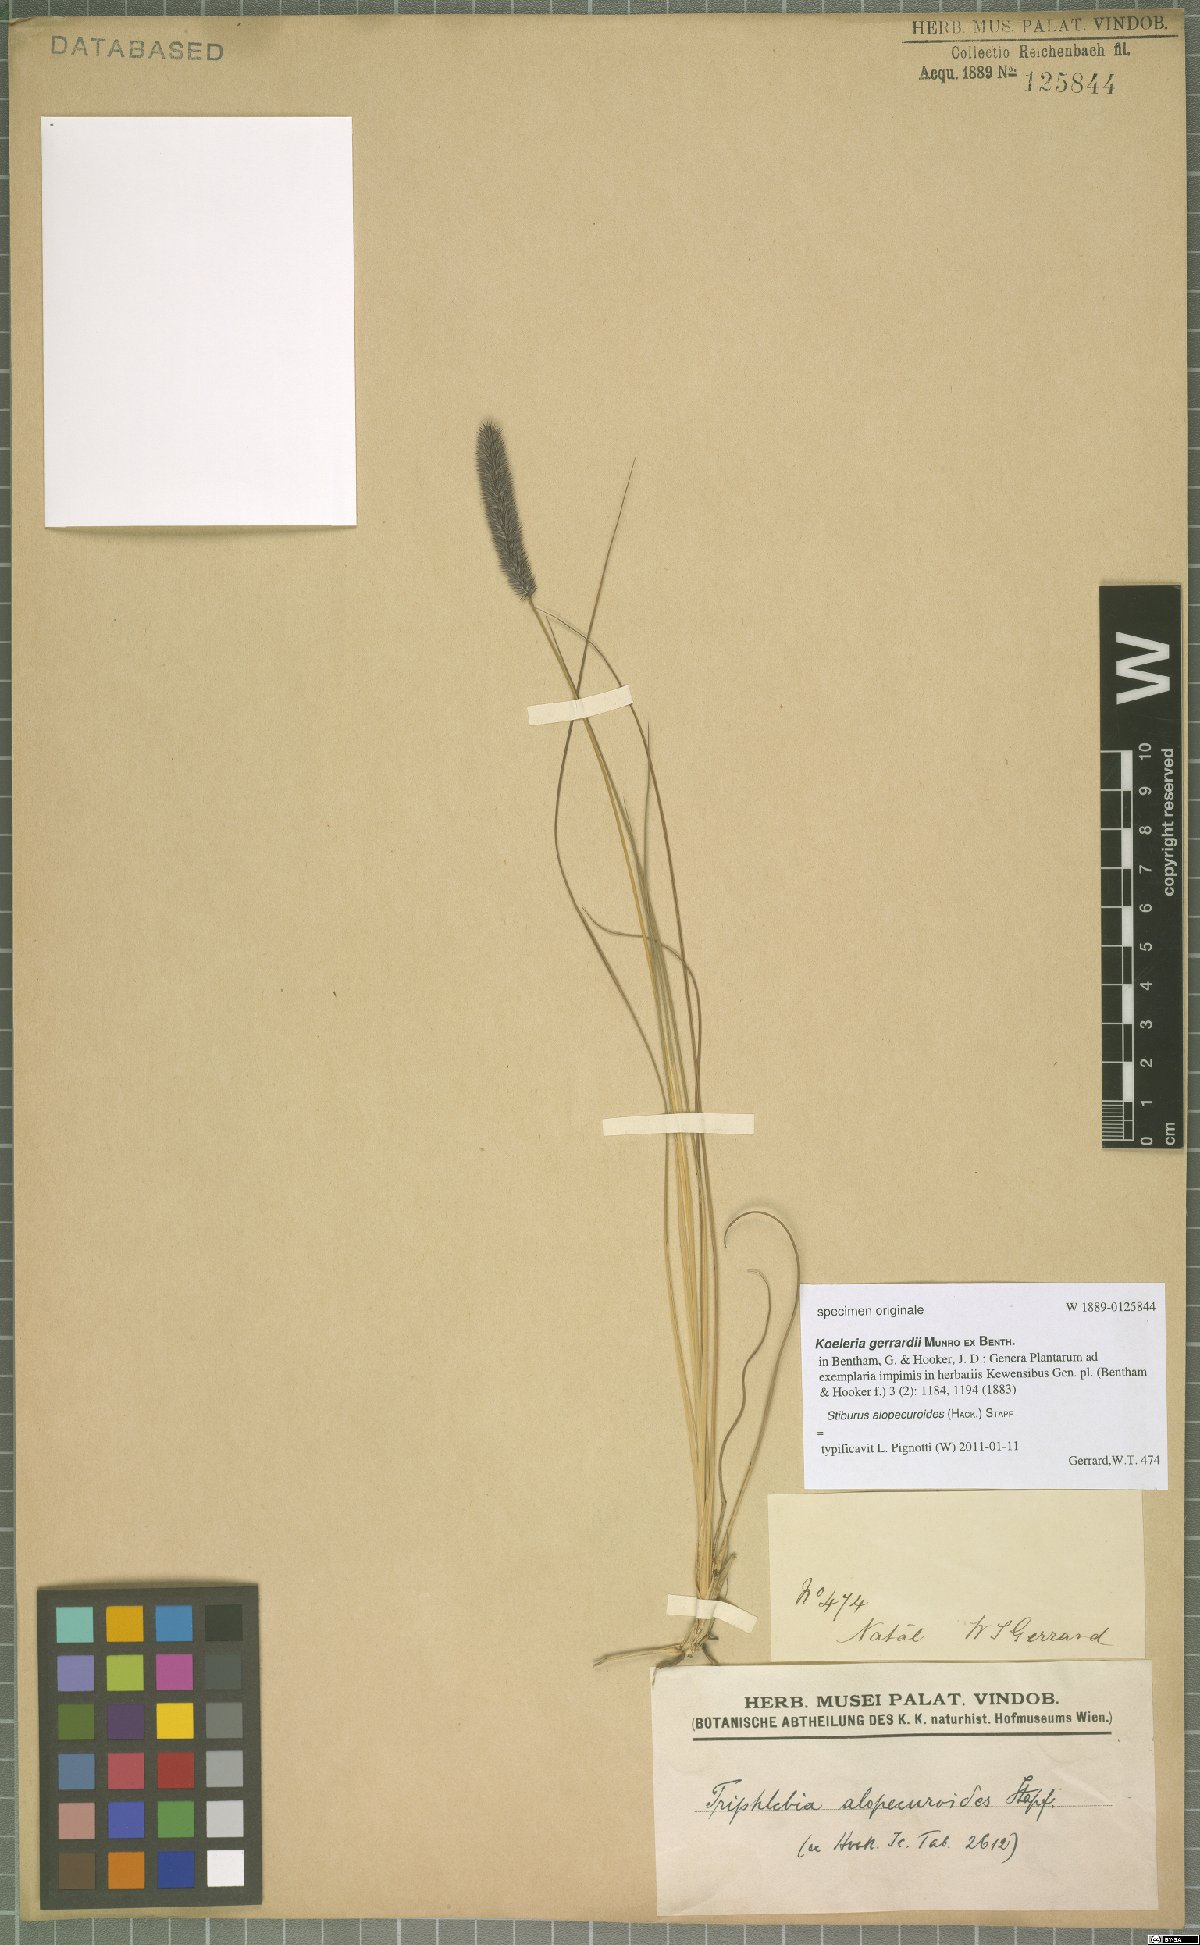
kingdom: Plantae
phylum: Tracheophyta
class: Liliopsida
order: Poales
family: Poaceae
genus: Stiburus
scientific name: Stiburus alopecuroides
